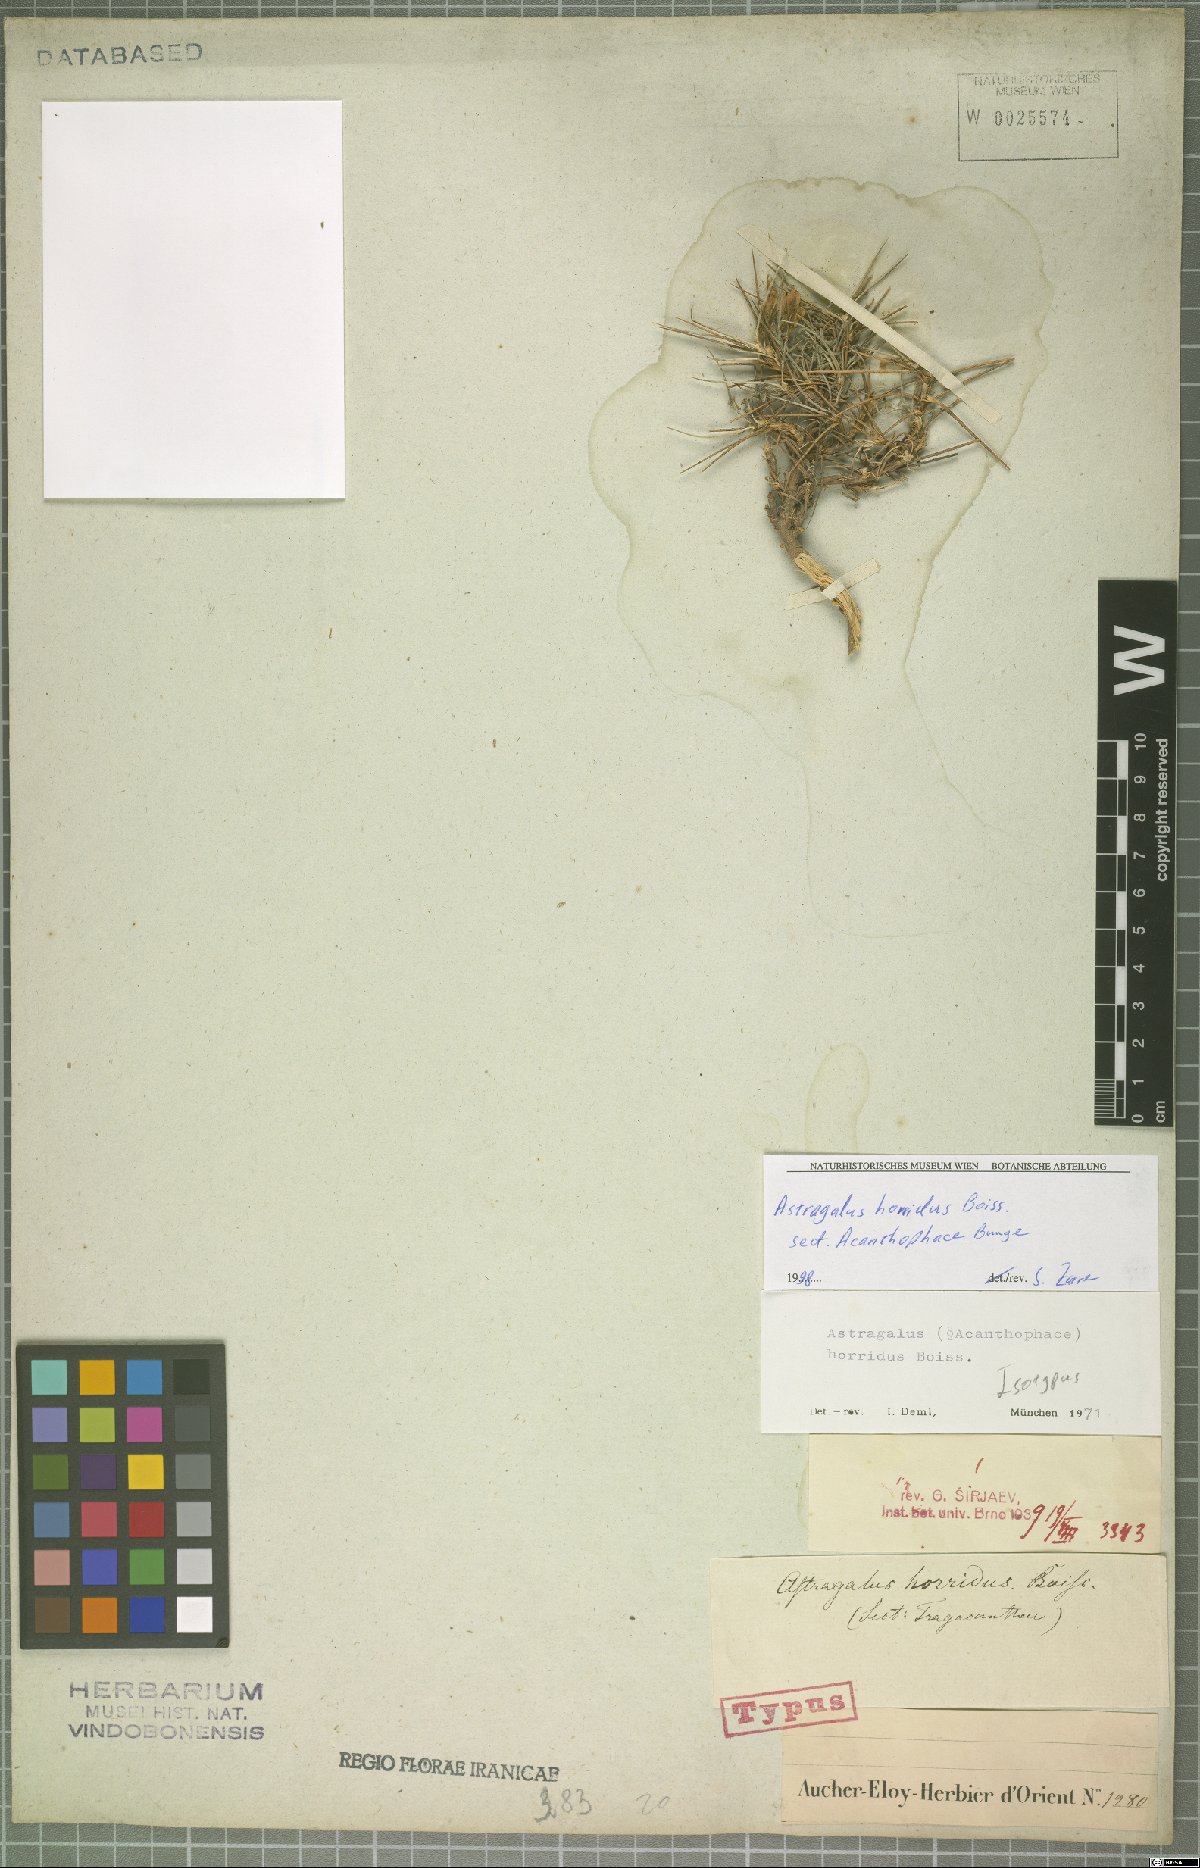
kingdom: Plantae
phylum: Tracheophyta
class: Magnoliopsida
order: Fabales
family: Fabaceae
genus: Astragalus
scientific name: Astragalus horridus
